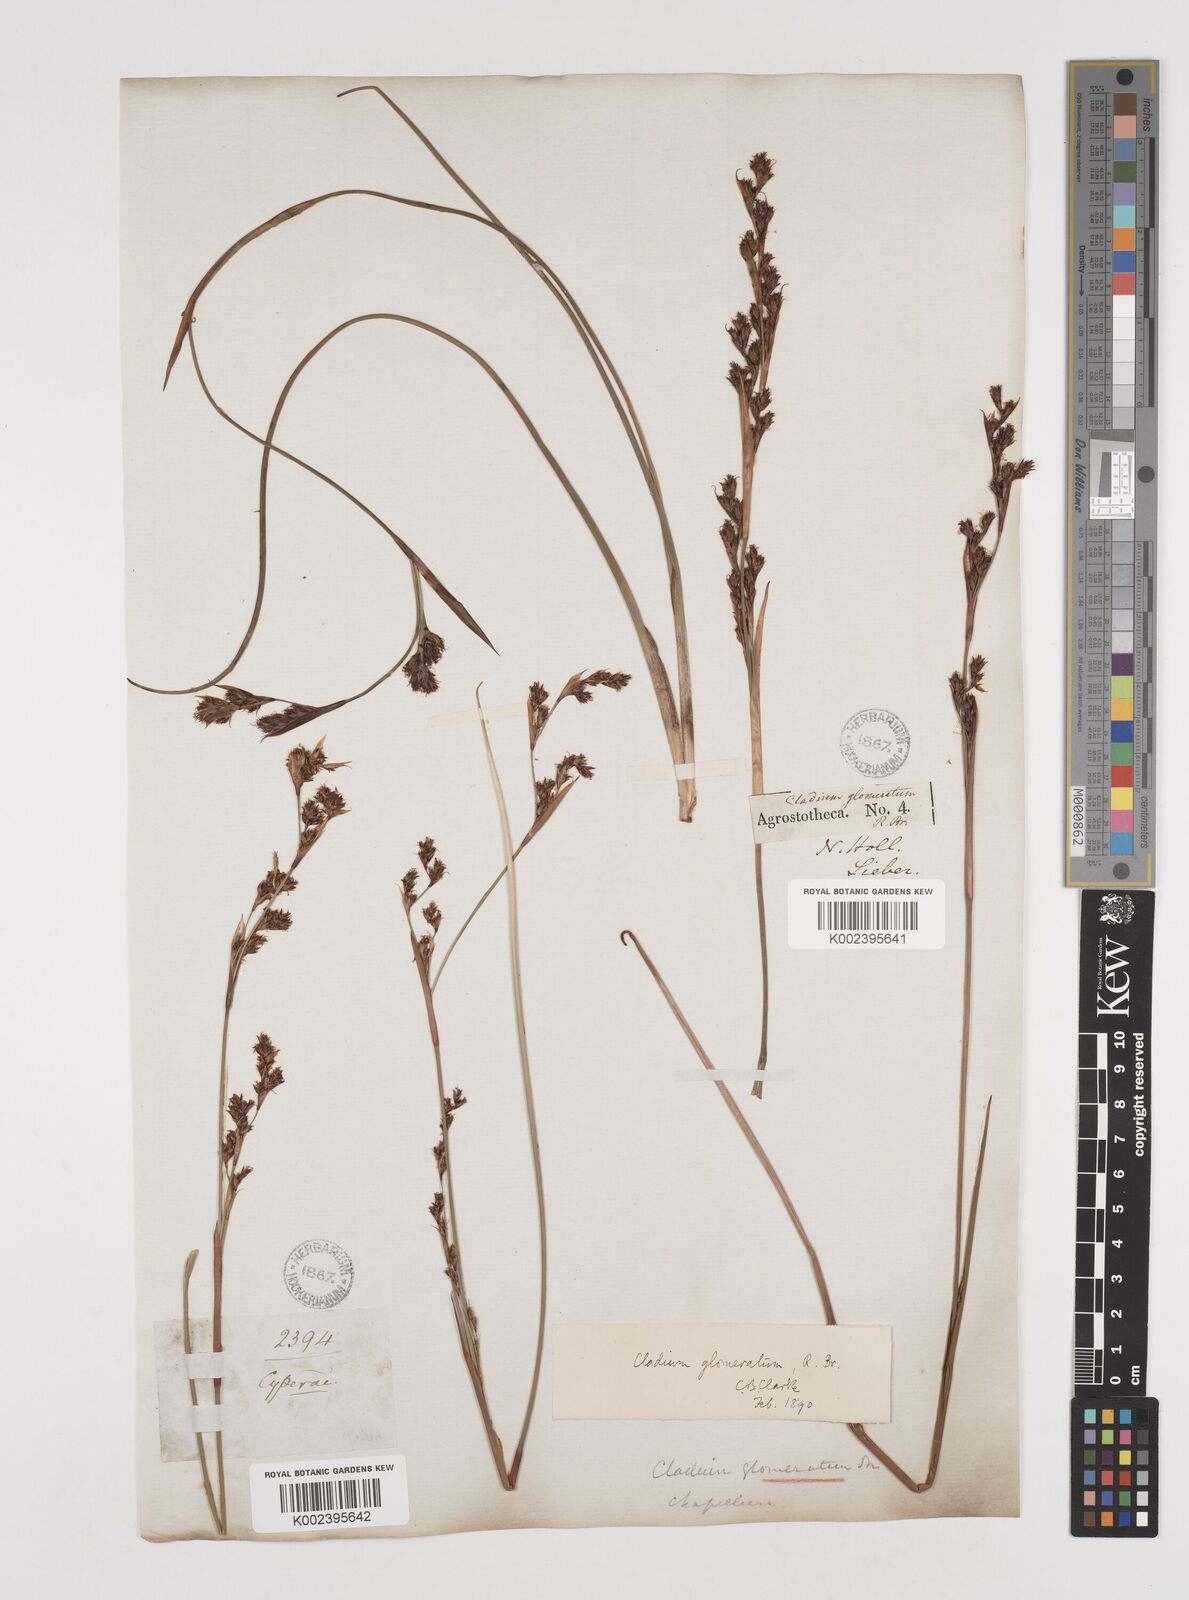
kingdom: Plantae
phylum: Tracheophyta
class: Liliopsida
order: Poales
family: Cyperaceae
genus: Machaerina
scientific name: Machaerina rubiginosa
